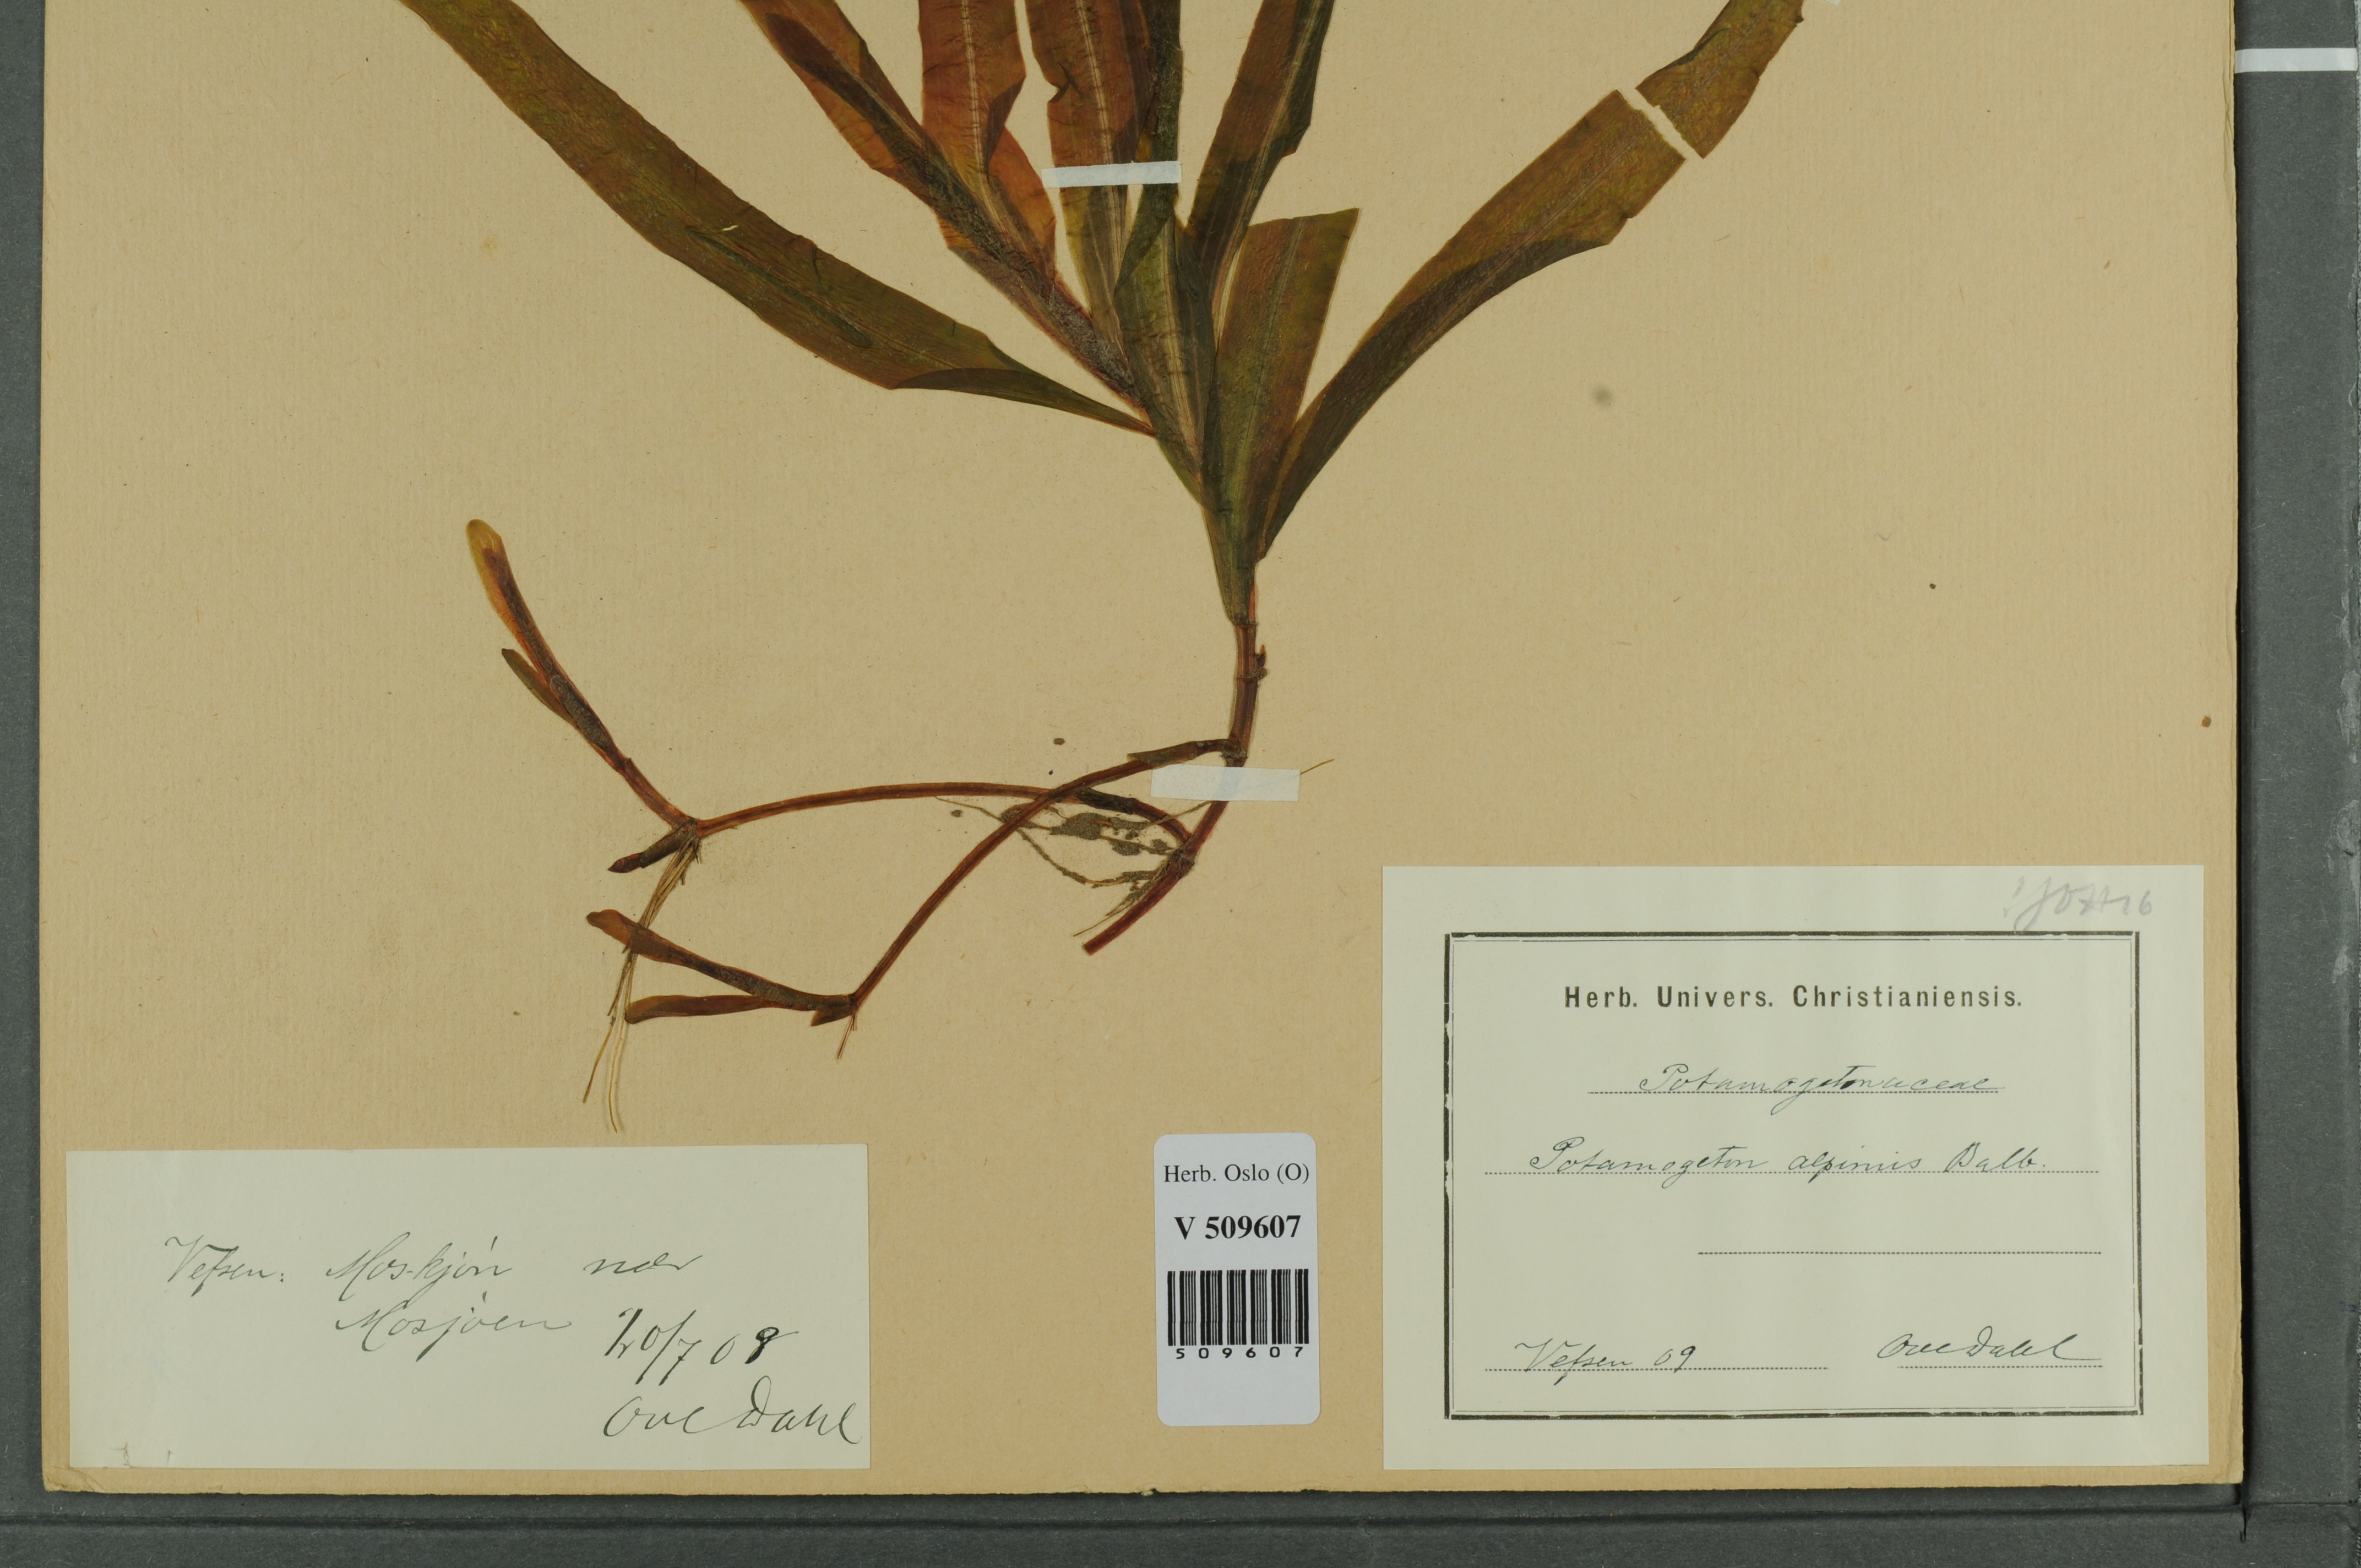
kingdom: Plantae
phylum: Tracheophyta
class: Liliopsida
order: Alismatales
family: Potamogetonaceae
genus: Potamogeton
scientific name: Potamogeton alpinus
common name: Red pondweed
